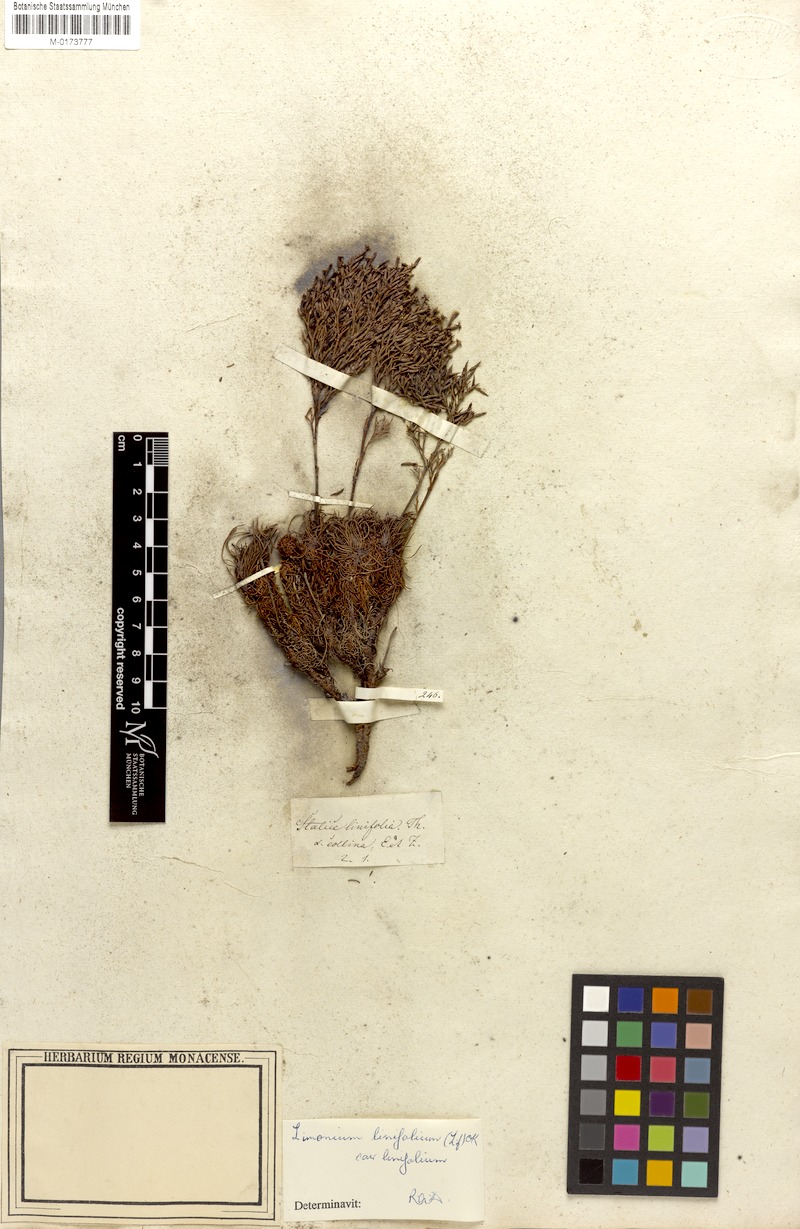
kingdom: Plantae
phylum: Tracheophyta
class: Magnoliopsida
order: Caryophyllales
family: Plumbaginaceae
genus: Limonium
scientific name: Limonium linifolium
